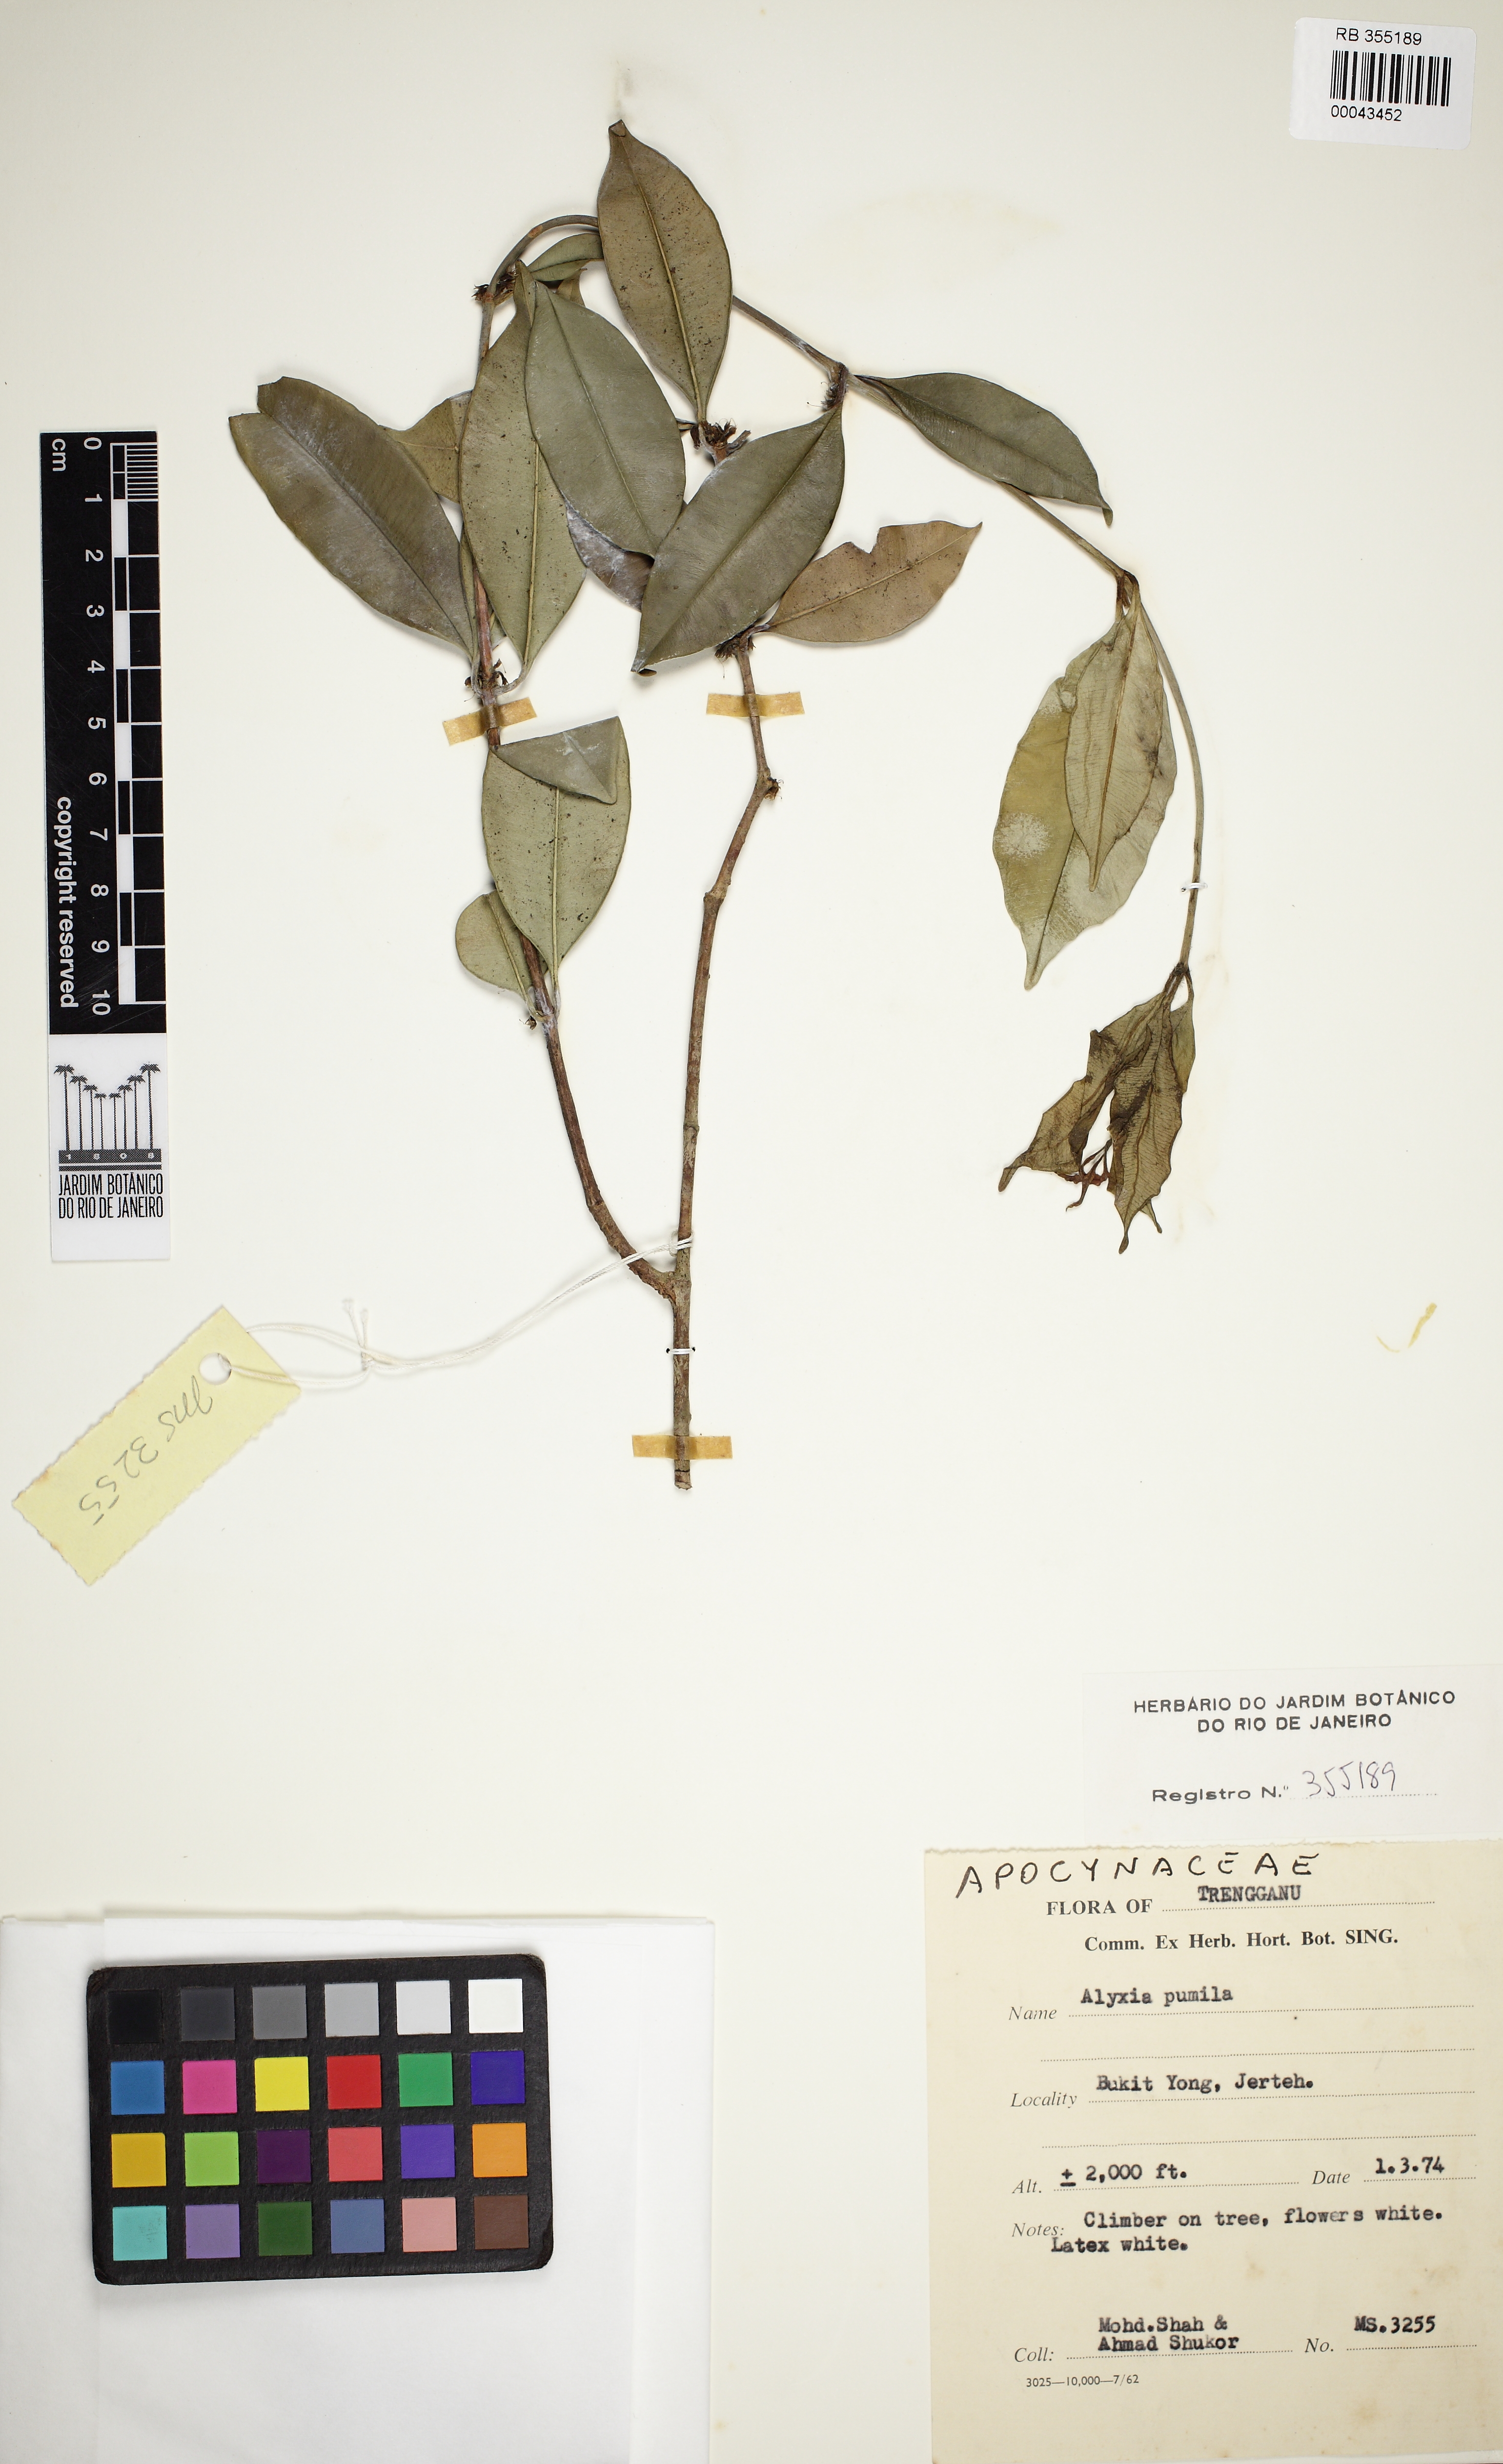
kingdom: Plantae
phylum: Tracheophyta
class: Magnoliopsida
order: Gentianales
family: Apocynaceae
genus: Alyxia
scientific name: Alyxia reinwardtii
